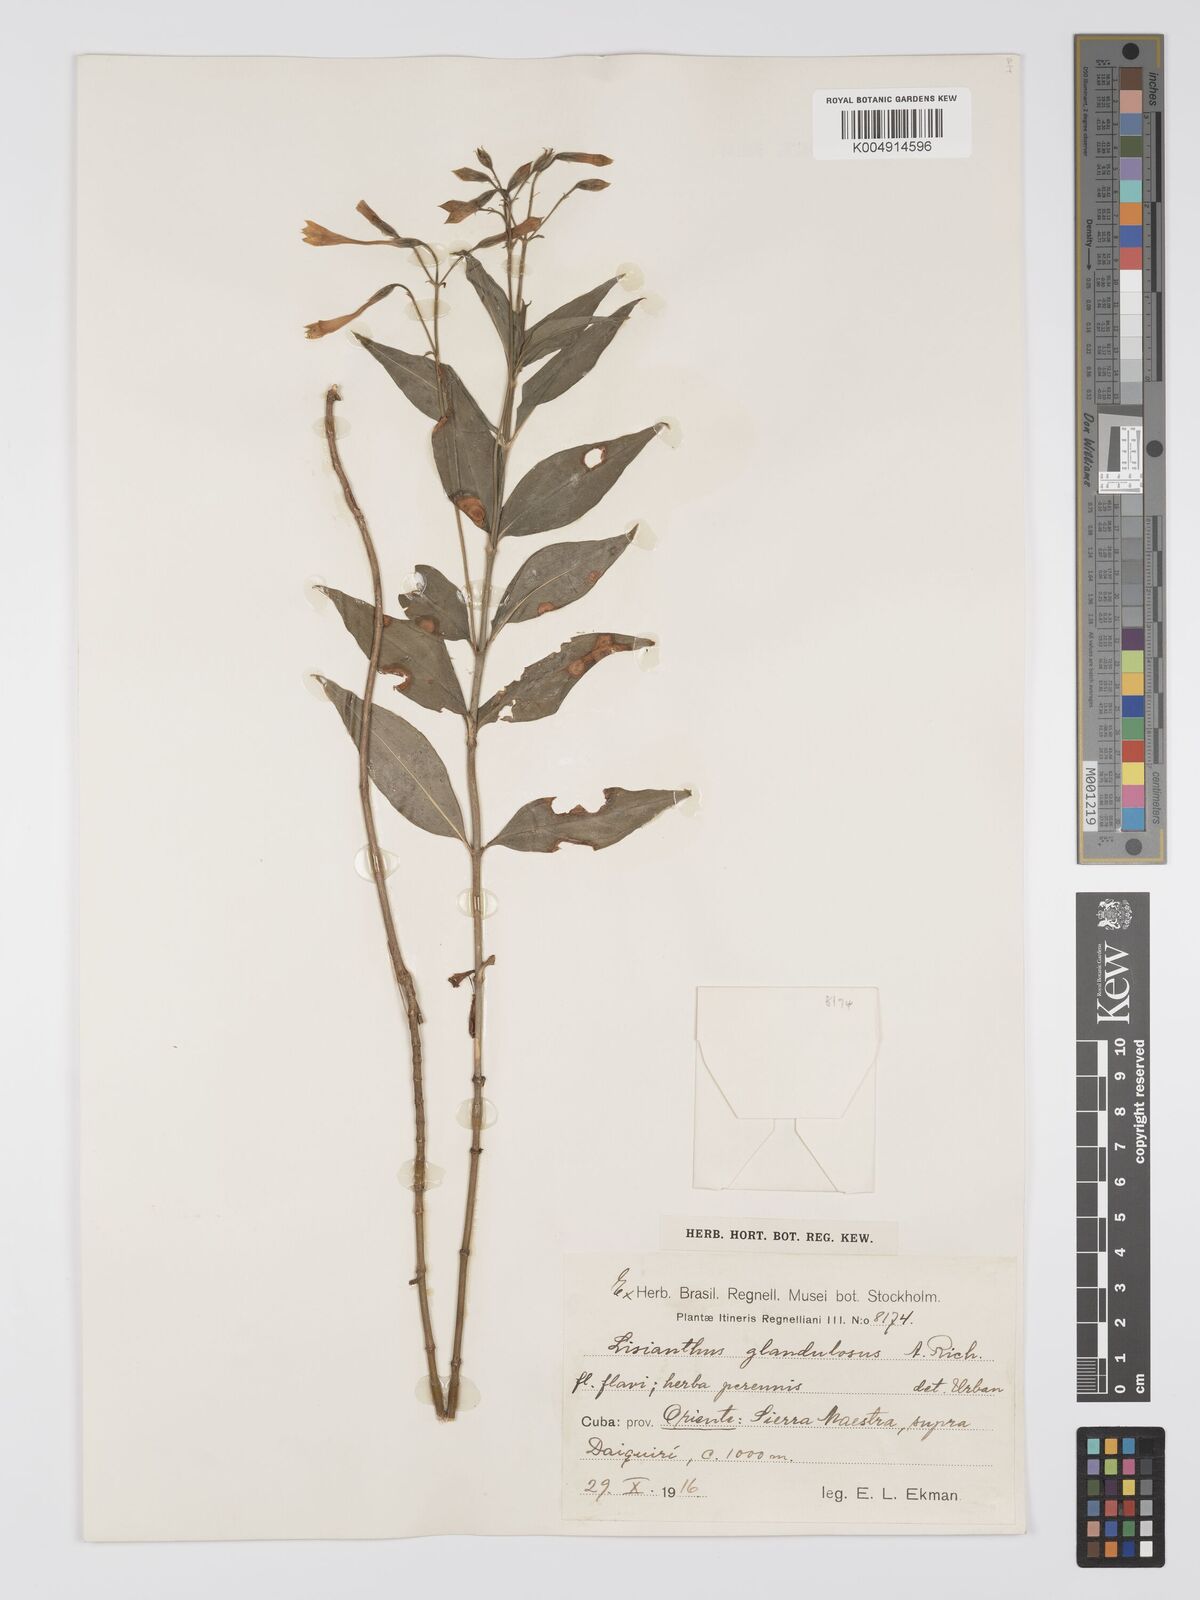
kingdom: Plantae
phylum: Tracheophyta
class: Magnoliopsida
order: Gentianales
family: Gentianaceae
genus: Lisianthus
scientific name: Lisianthus glandulosus
